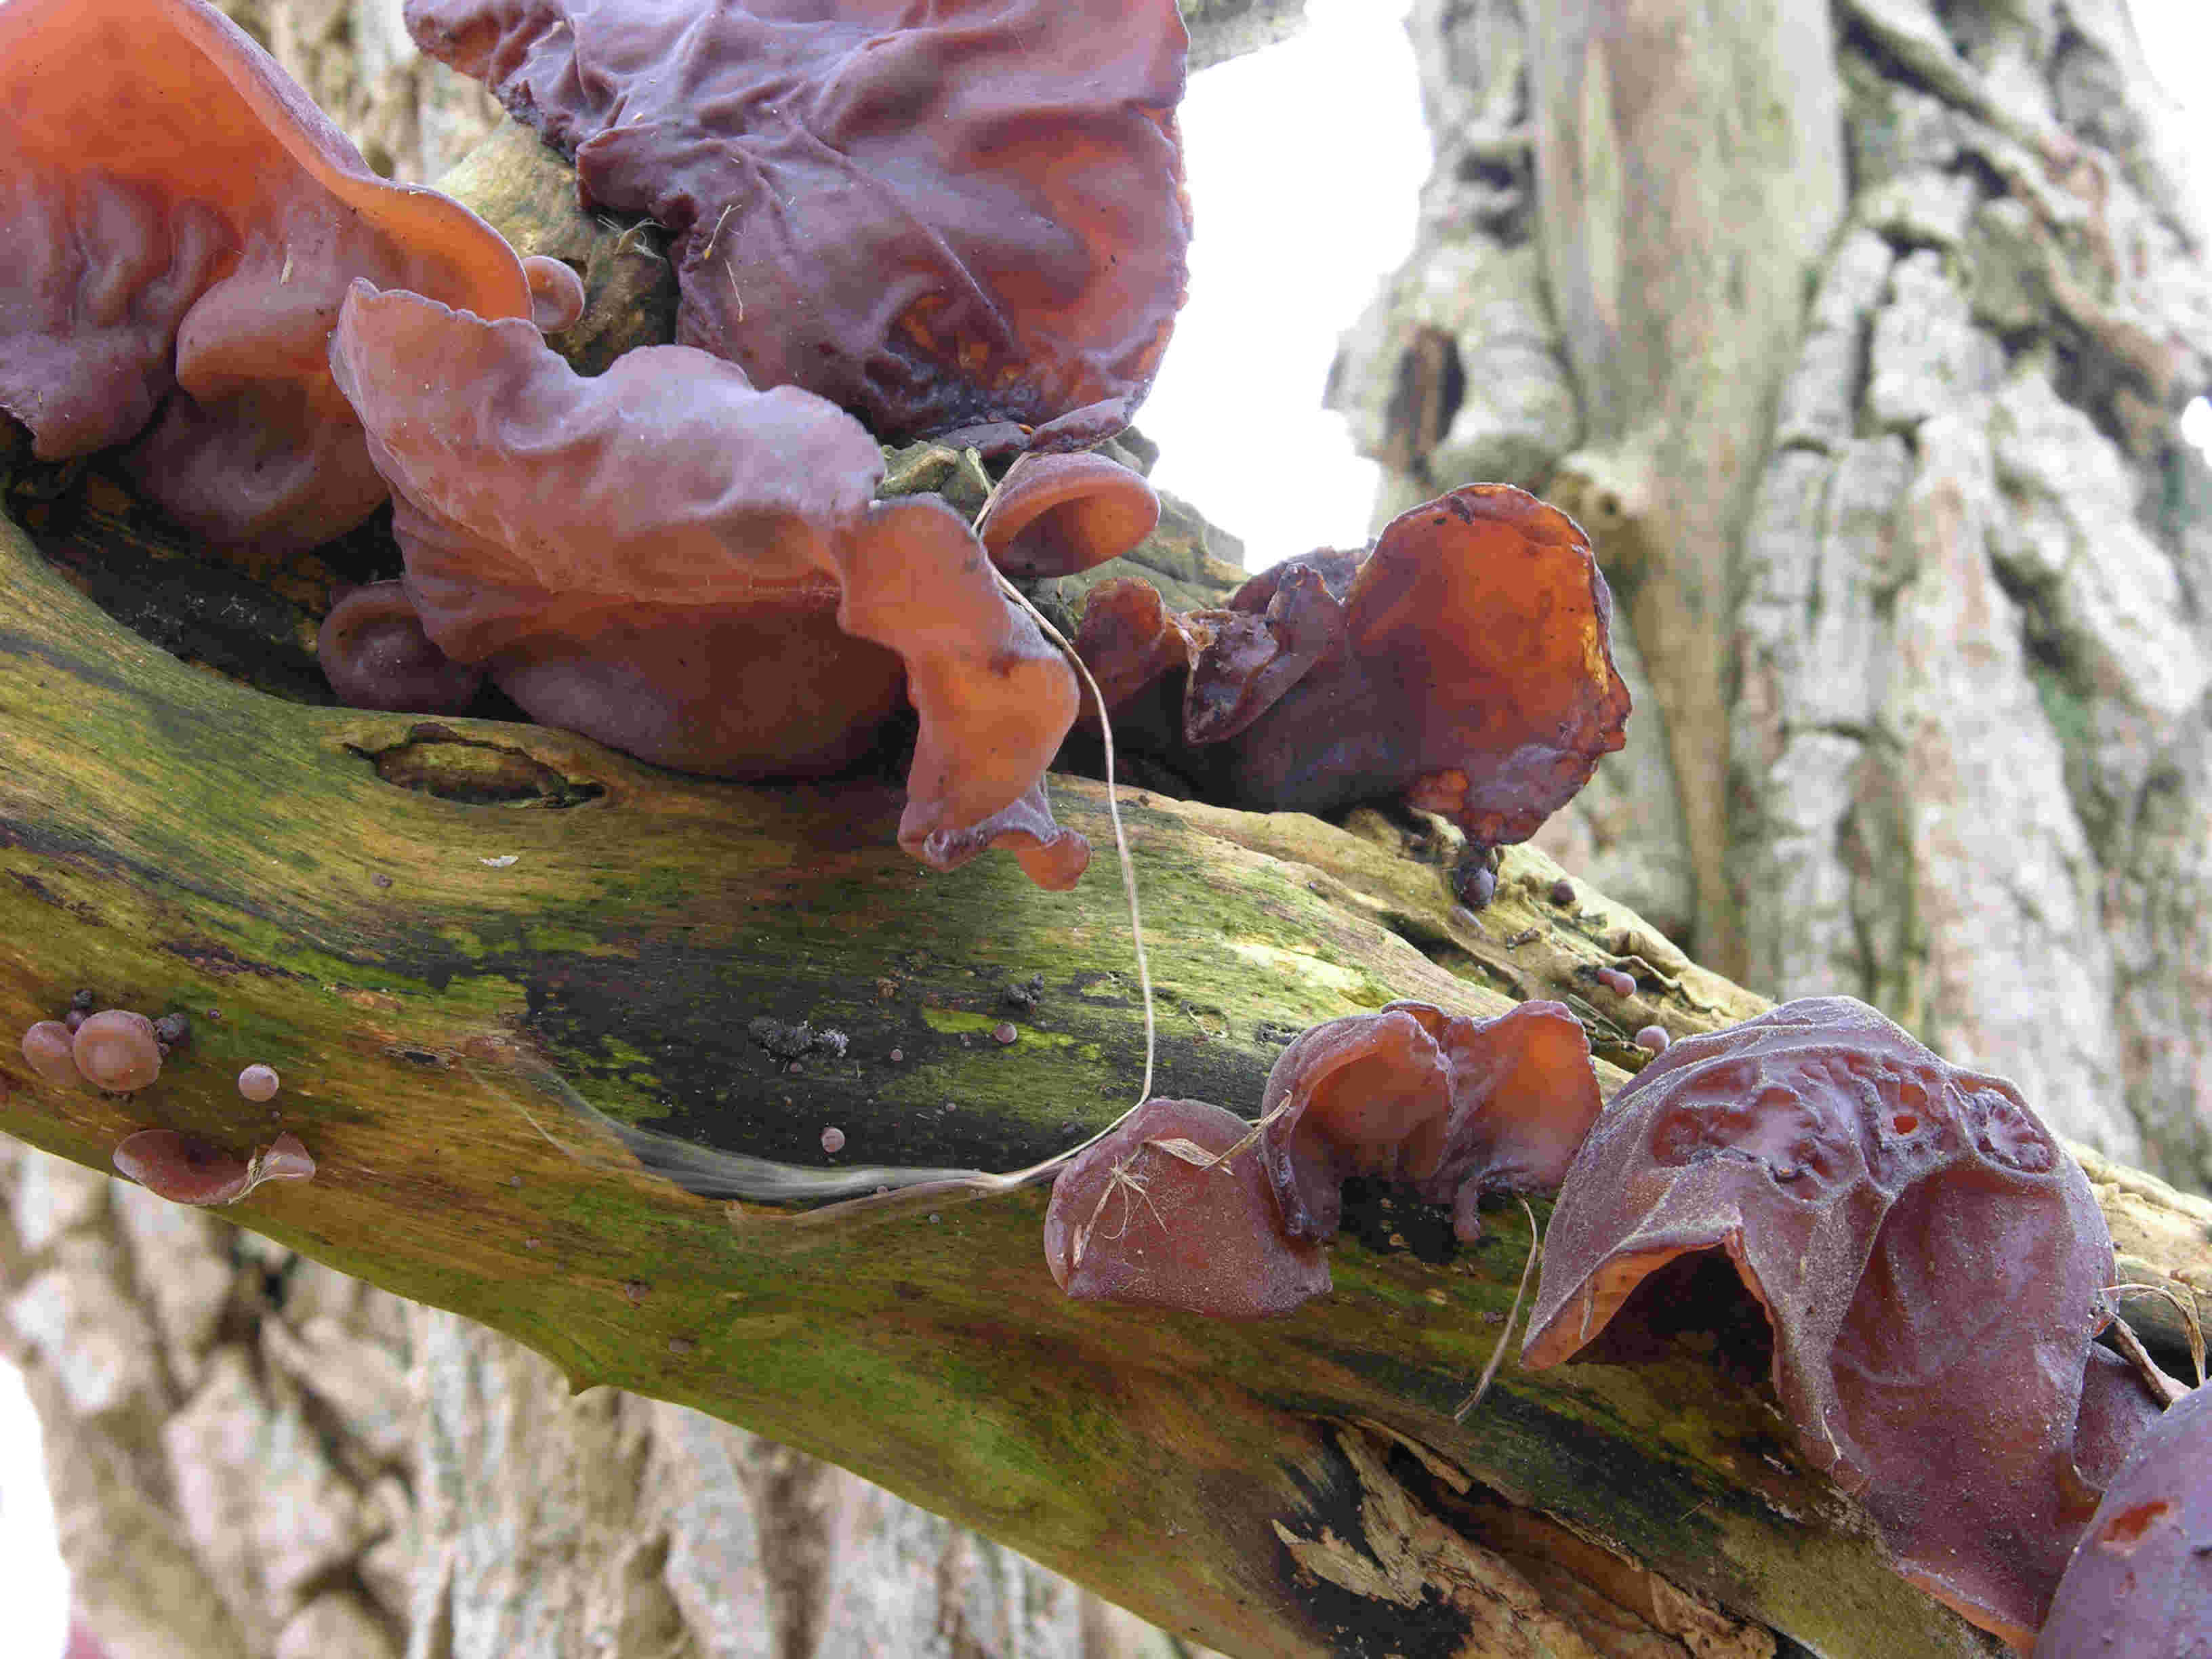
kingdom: Fungi
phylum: Basidiomycota
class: Agaricomycetes
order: Auriculariales
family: Auriculariaceae
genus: Auricularia
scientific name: Auricularia auricula-judae
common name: almindelig judasøre
